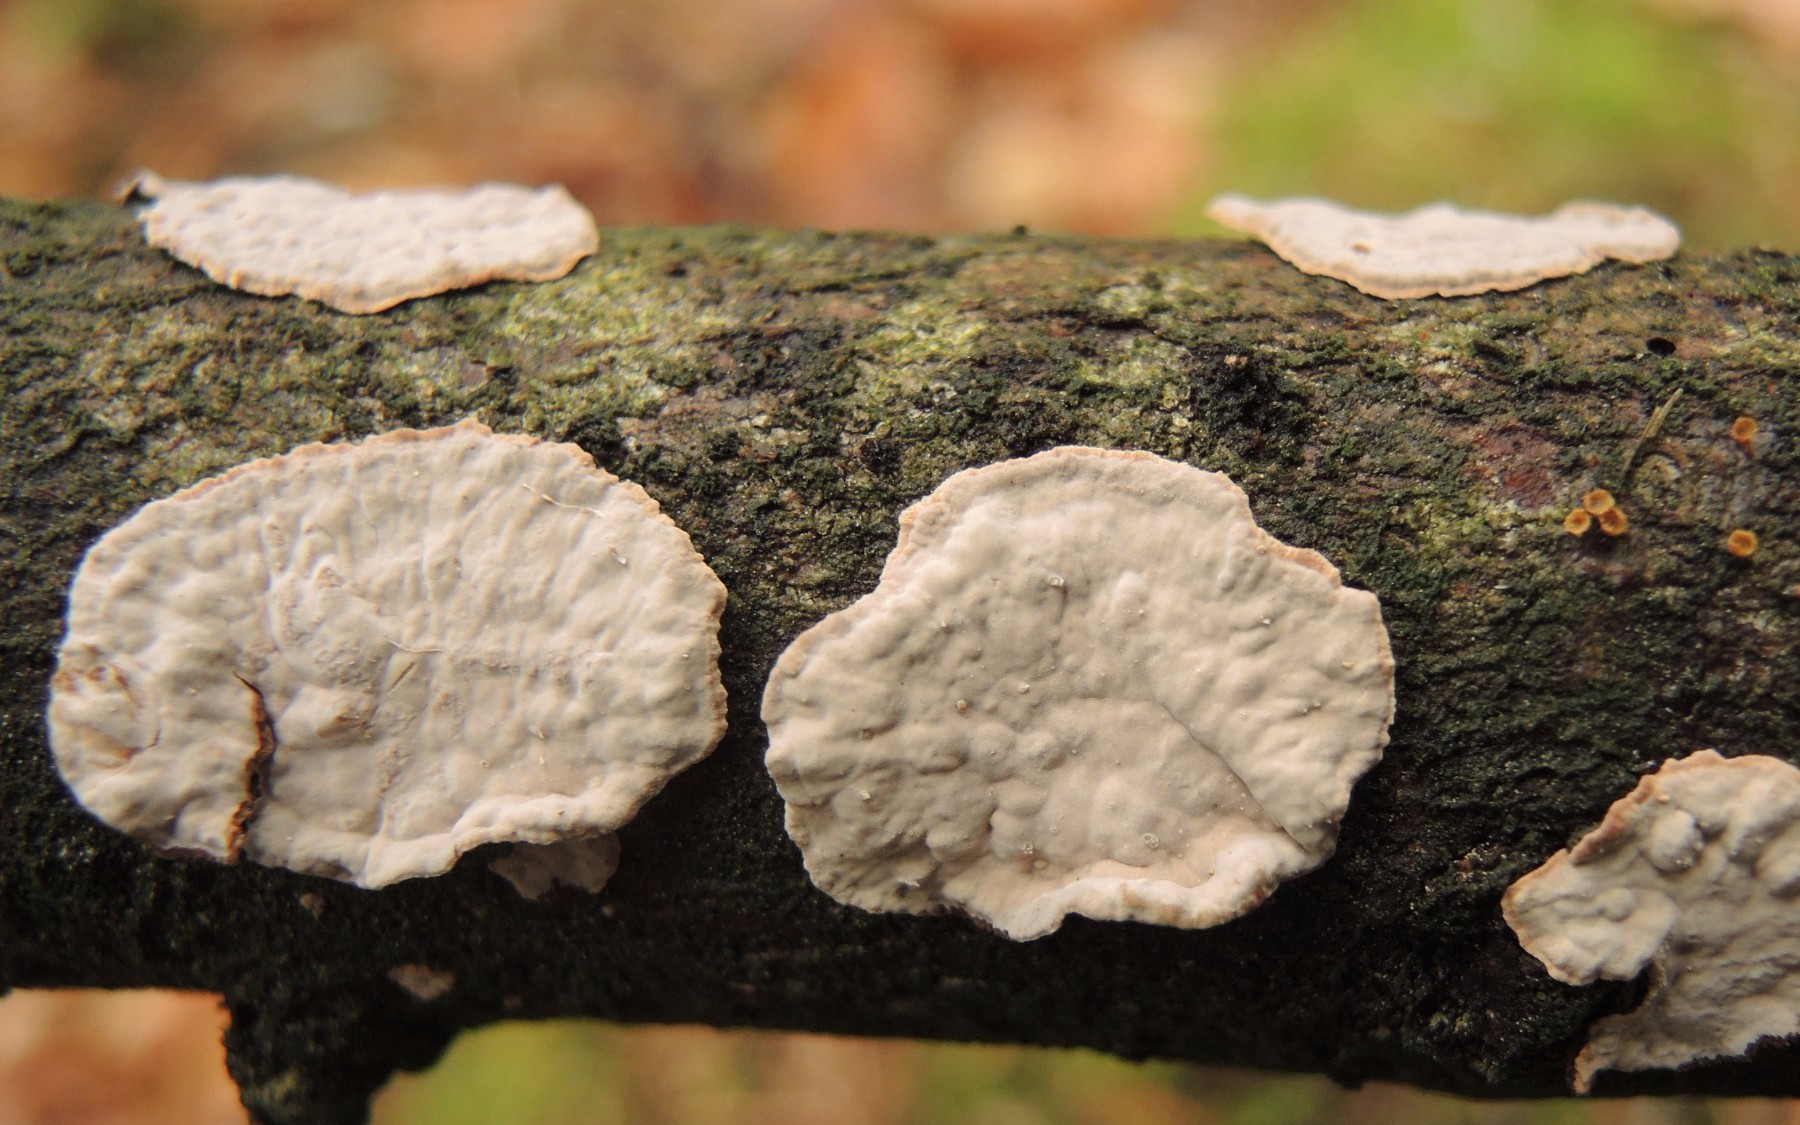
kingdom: Fungi
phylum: Basidiomycota
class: Agaricomycetes
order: Russulales
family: Echinodontiaceae
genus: Amylostereum
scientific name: Amylostereum chailletii
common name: gran-lædersvamp
